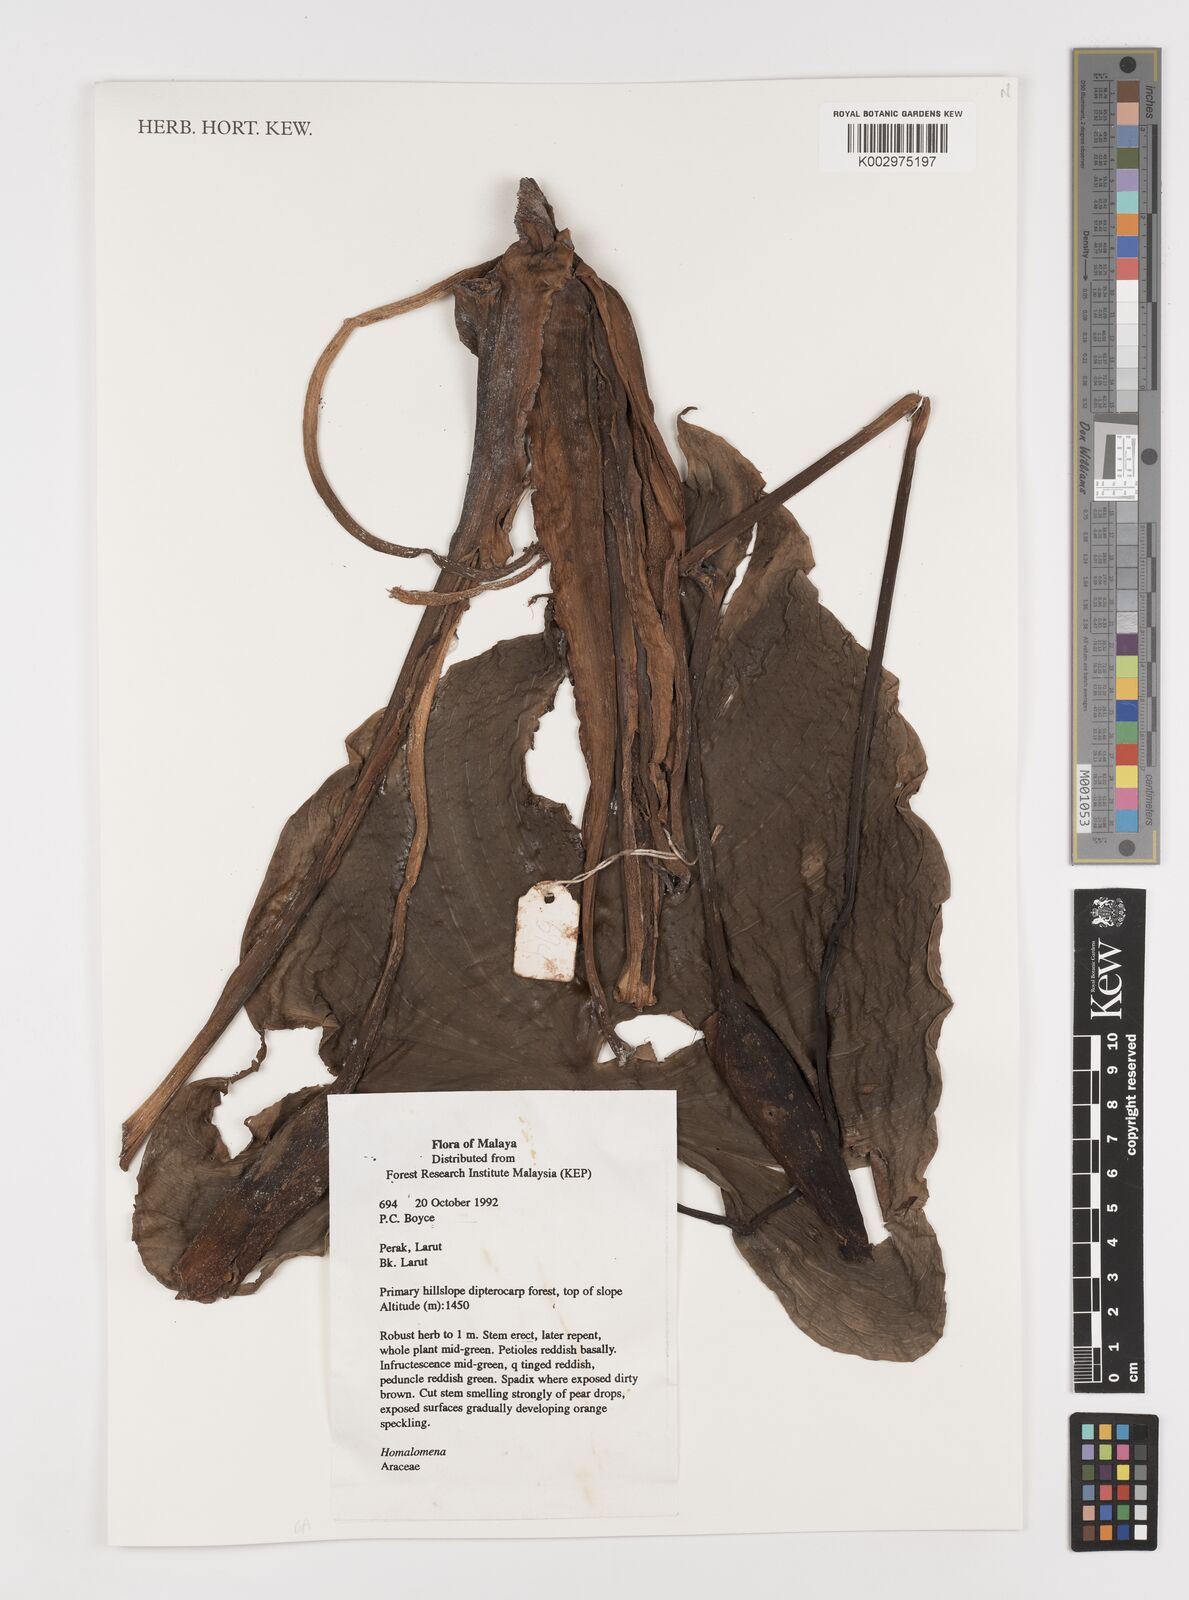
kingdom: Plantae
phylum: Tracheophyta
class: Liliopsida
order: Alismatales
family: Araceae
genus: Homalomena
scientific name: Homalomena
